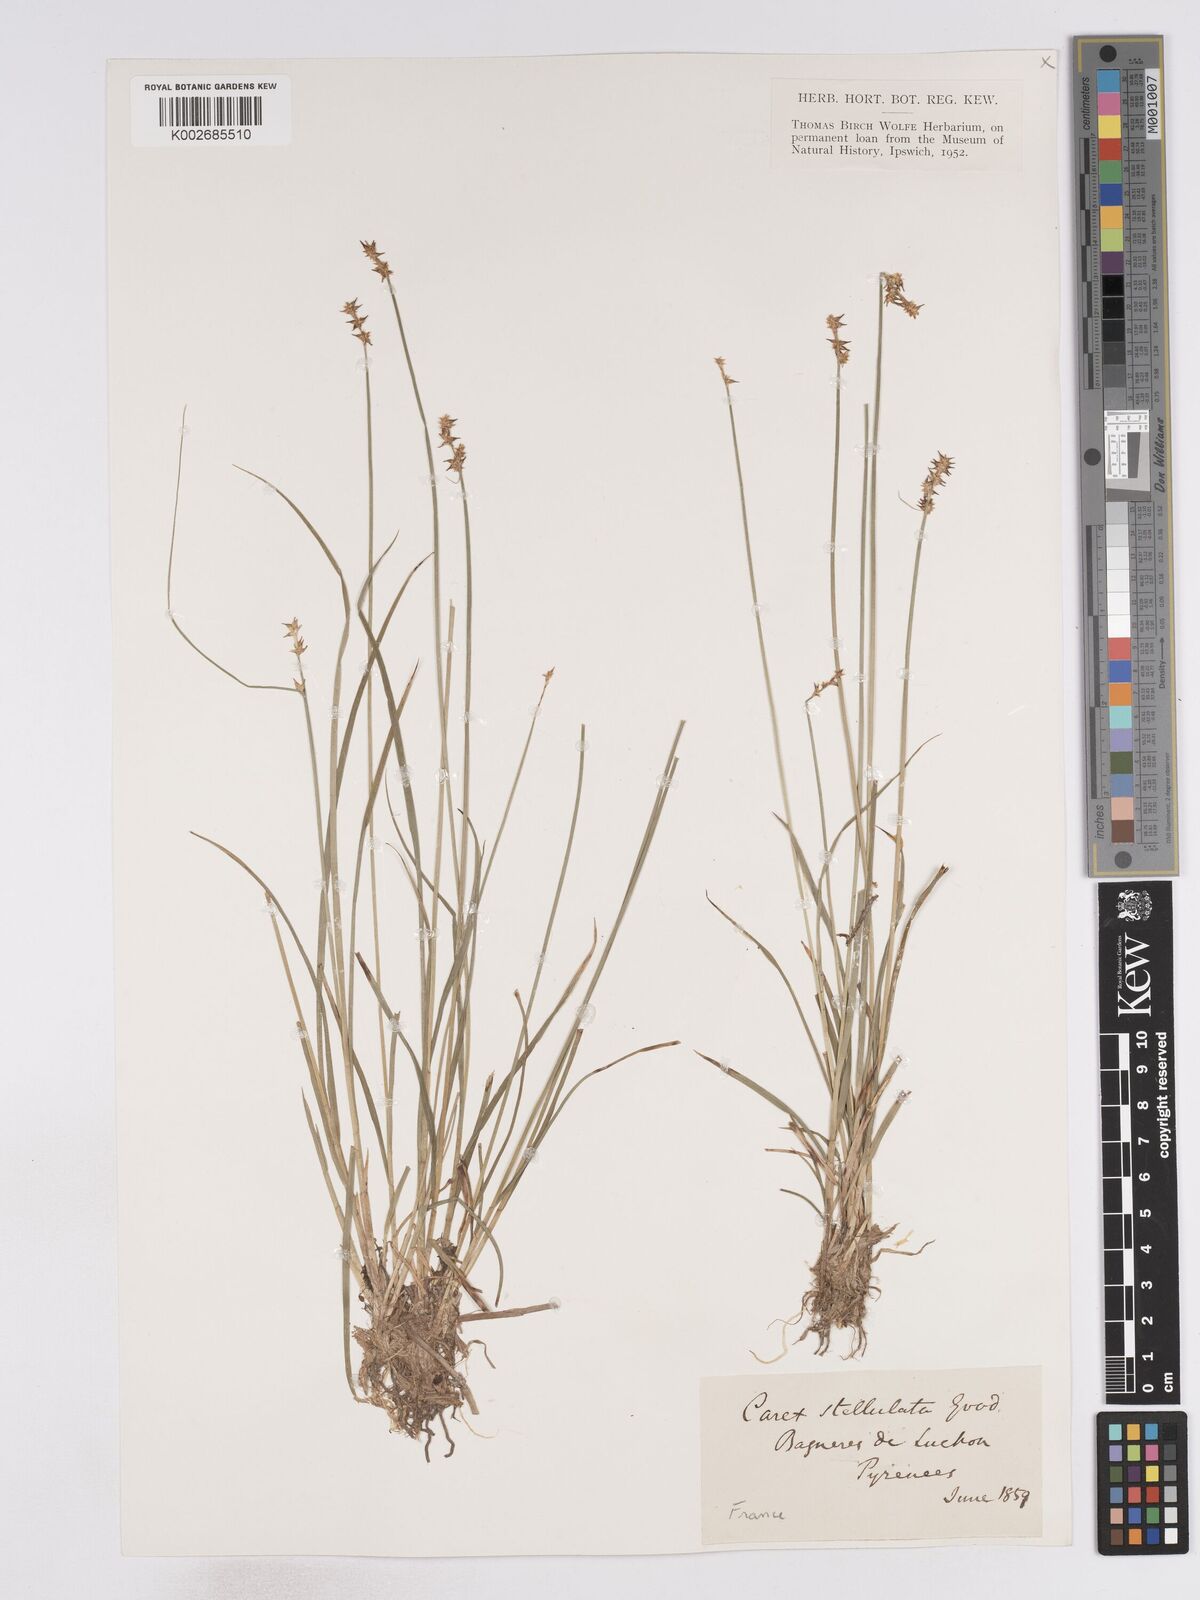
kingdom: Plantae
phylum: Tracheophyta
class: Liliopsida
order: Poales
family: Cyperaceae
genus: Carex
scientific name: Carex echinata
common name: Star sedge
